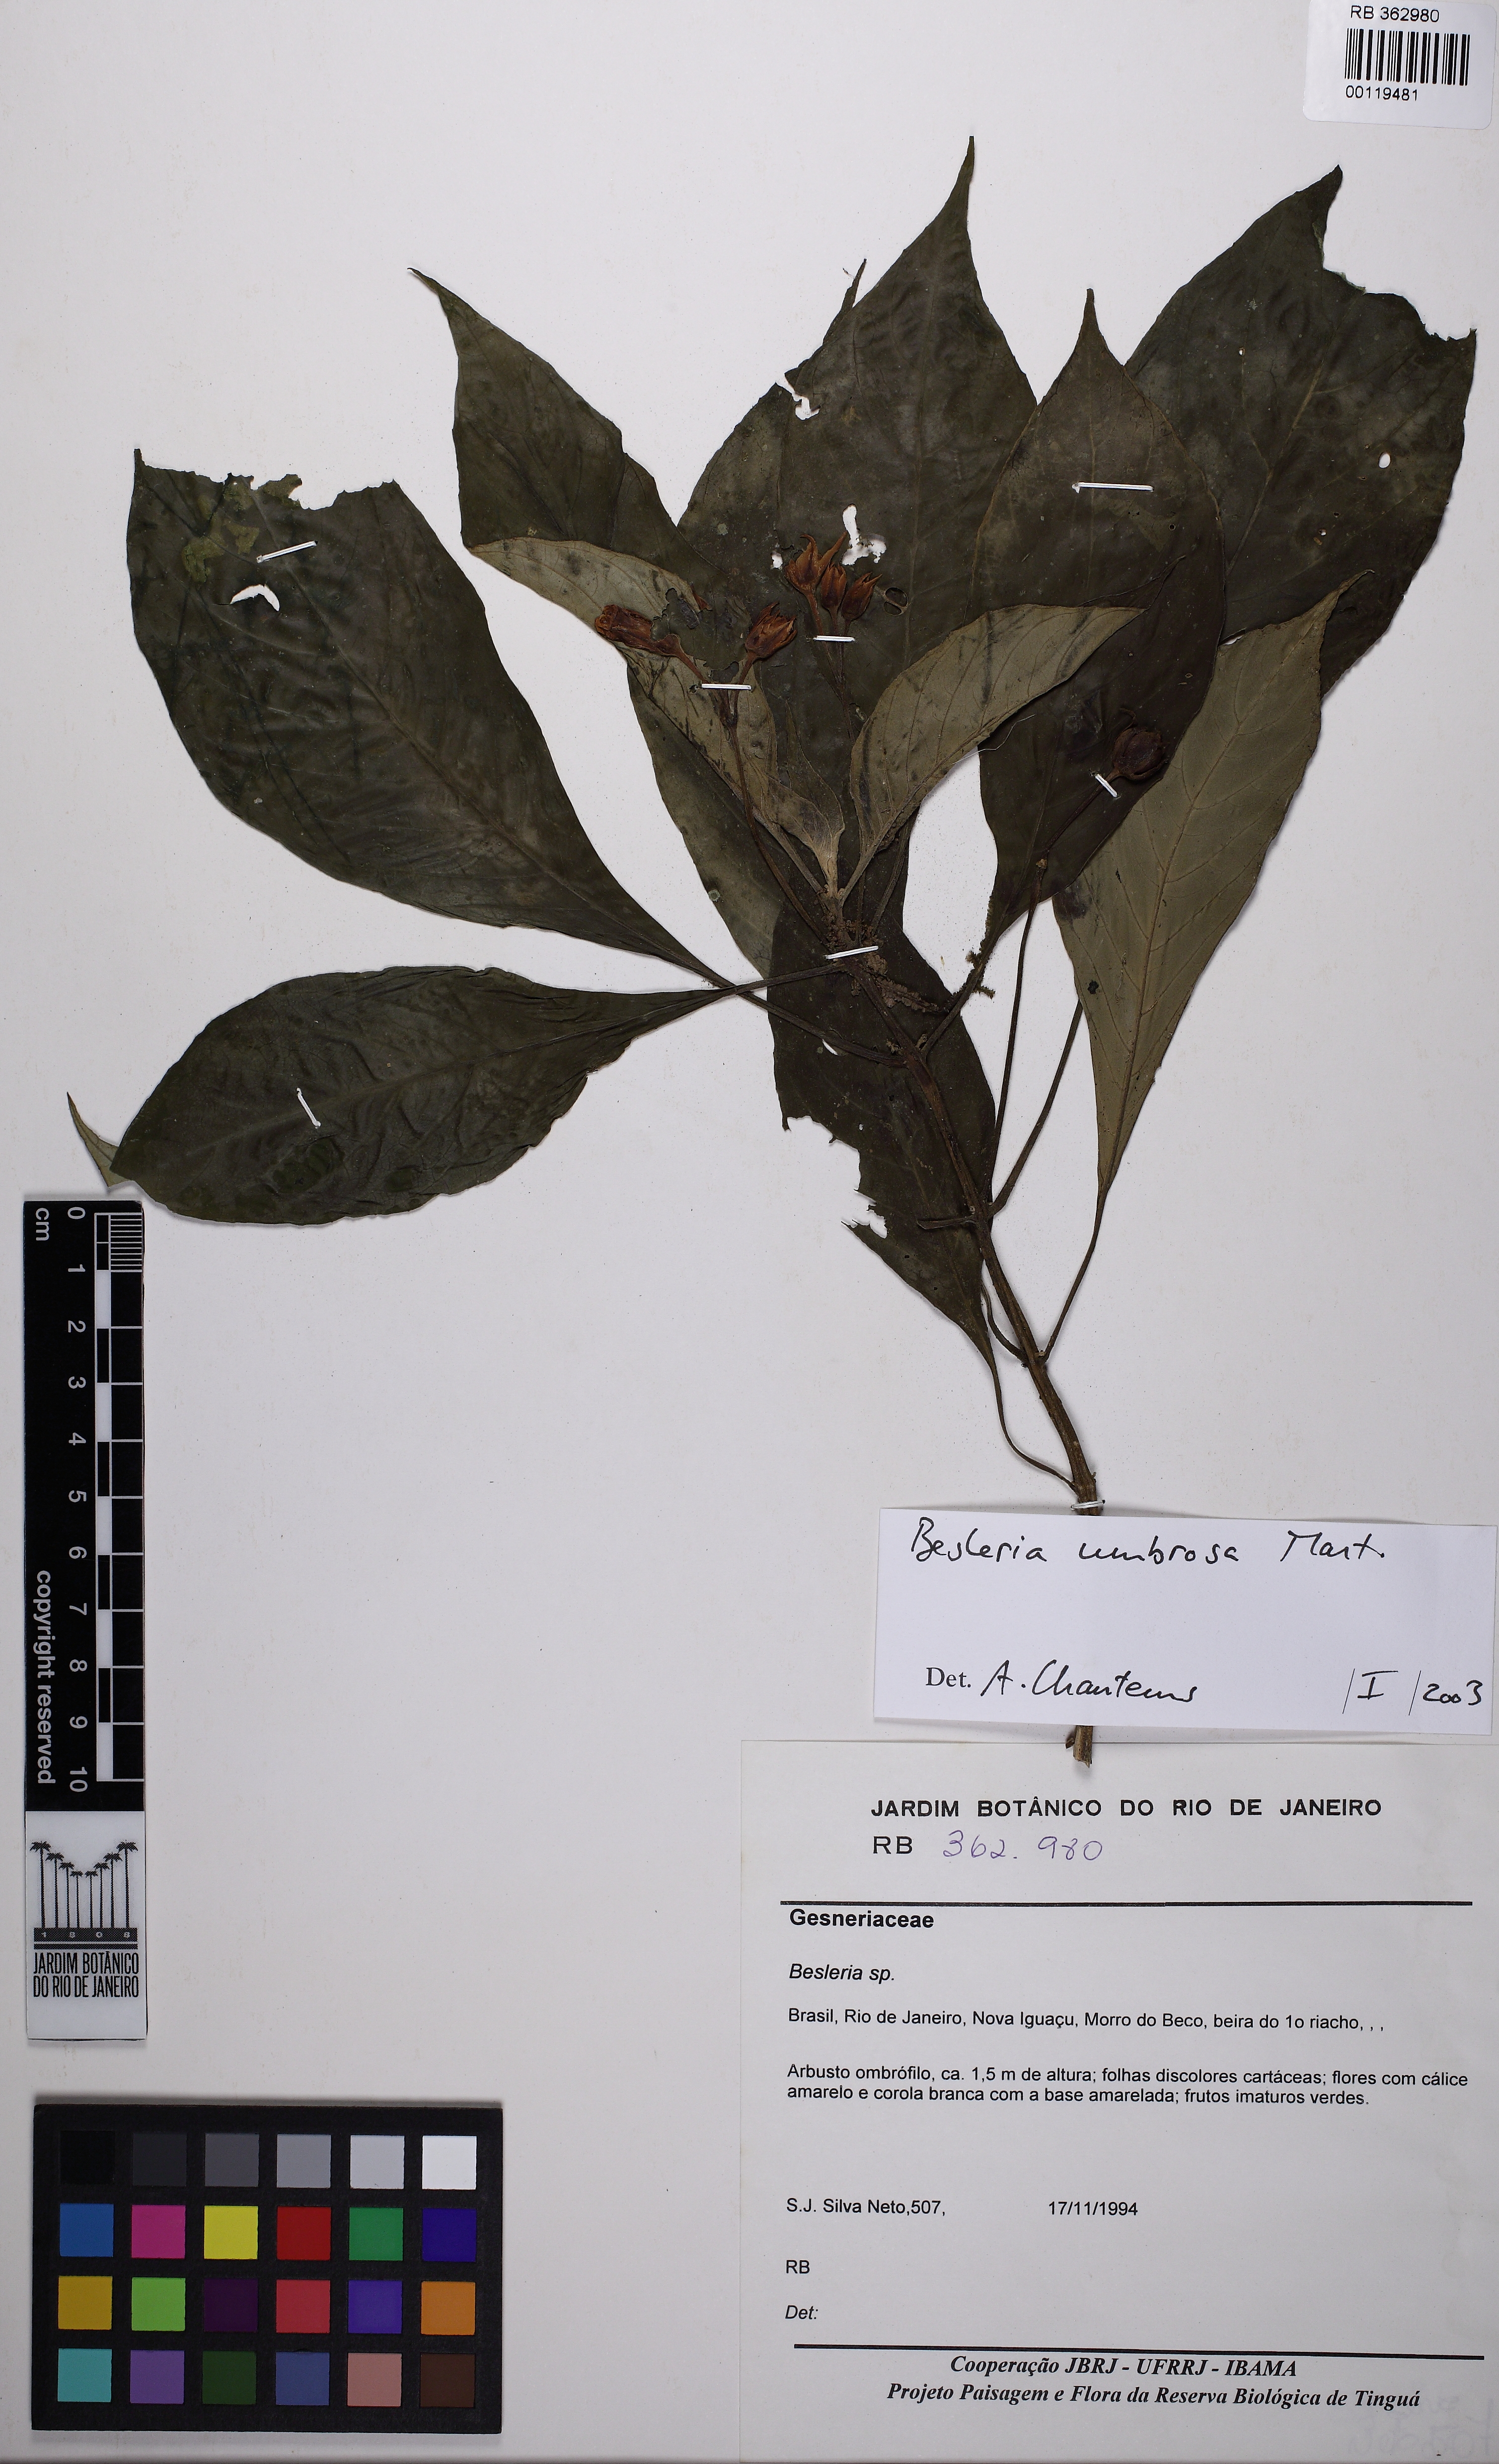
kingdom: Plantae
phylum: Tracheophyta
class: Magnoliopsida
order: Lamiales
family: Gesneriaceae
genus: Besleria
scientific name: Besleria umbrosa
